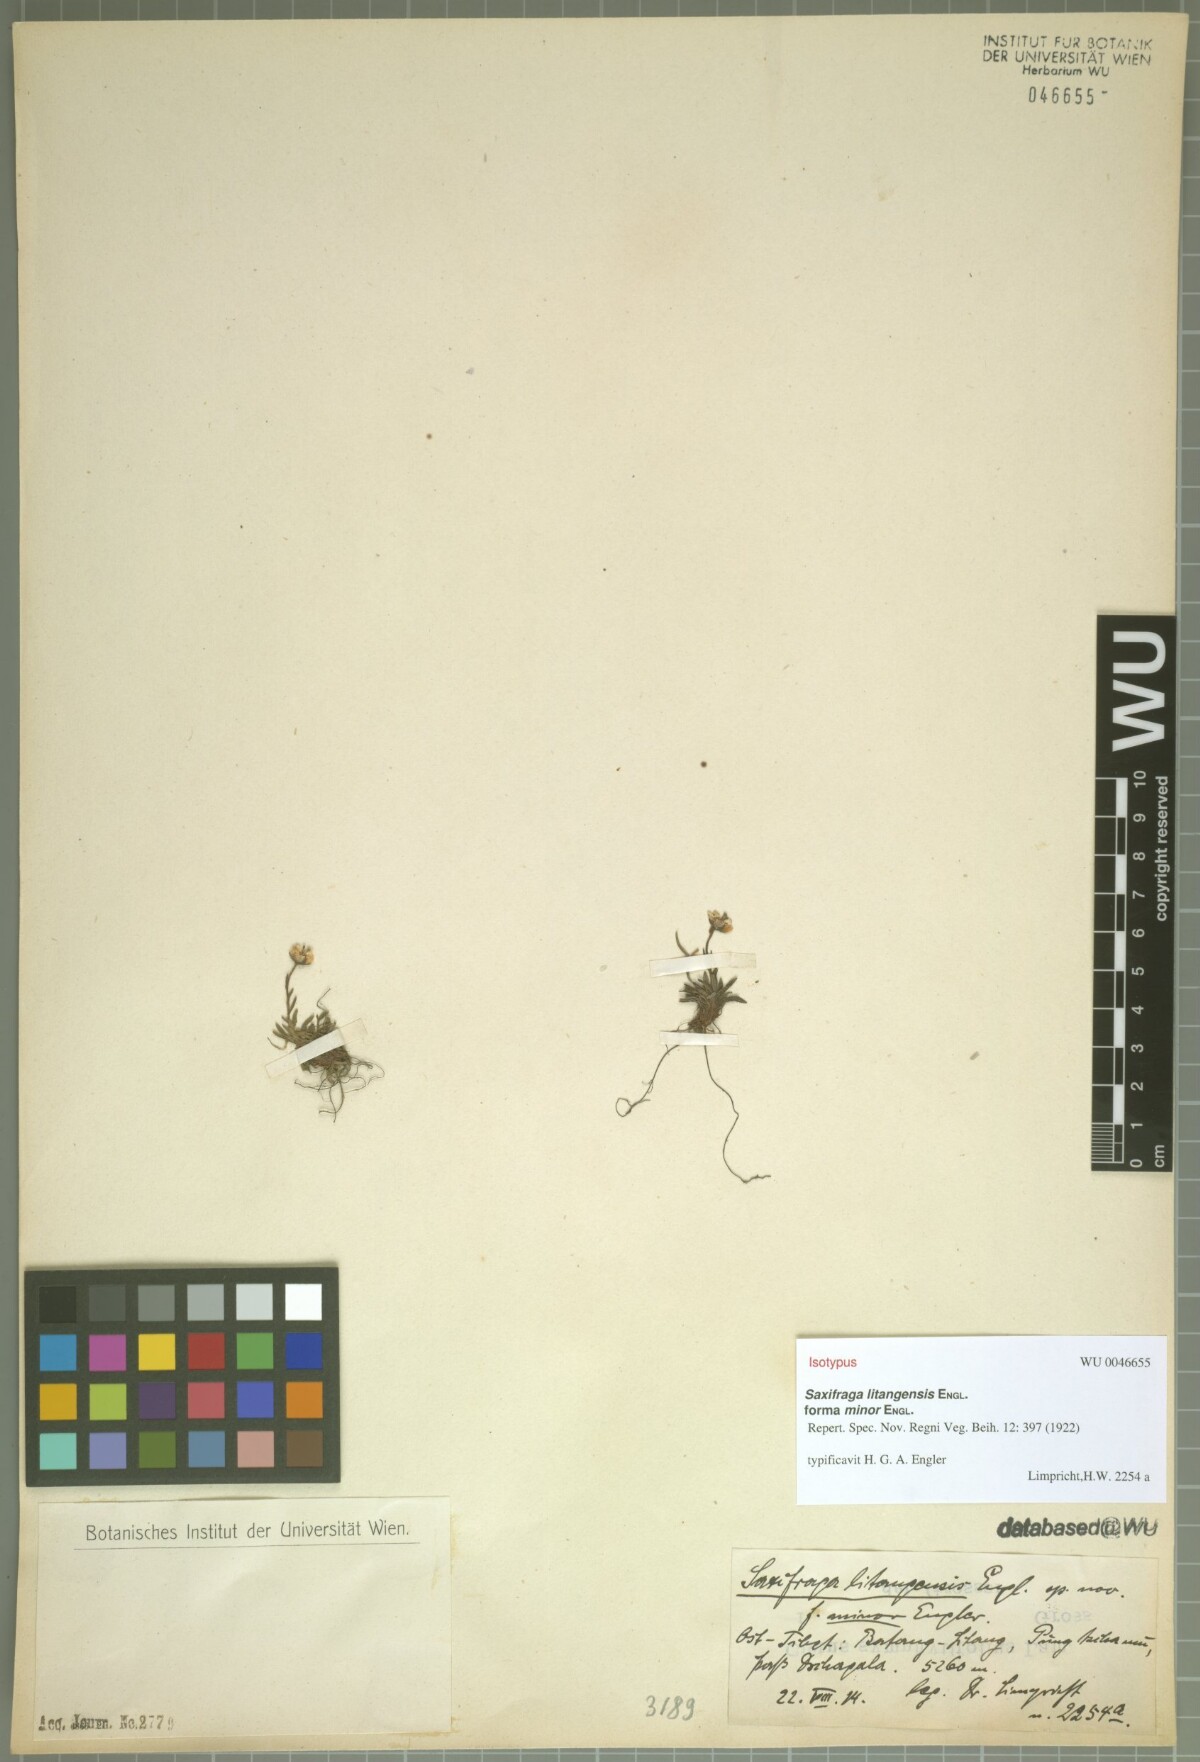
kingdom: Plantae
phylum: Tracheophyta
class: Magnoliopsida
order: Saxifragales
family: Saxifragaceae
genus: Saxifraga
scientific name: Saxifraga litangensis
